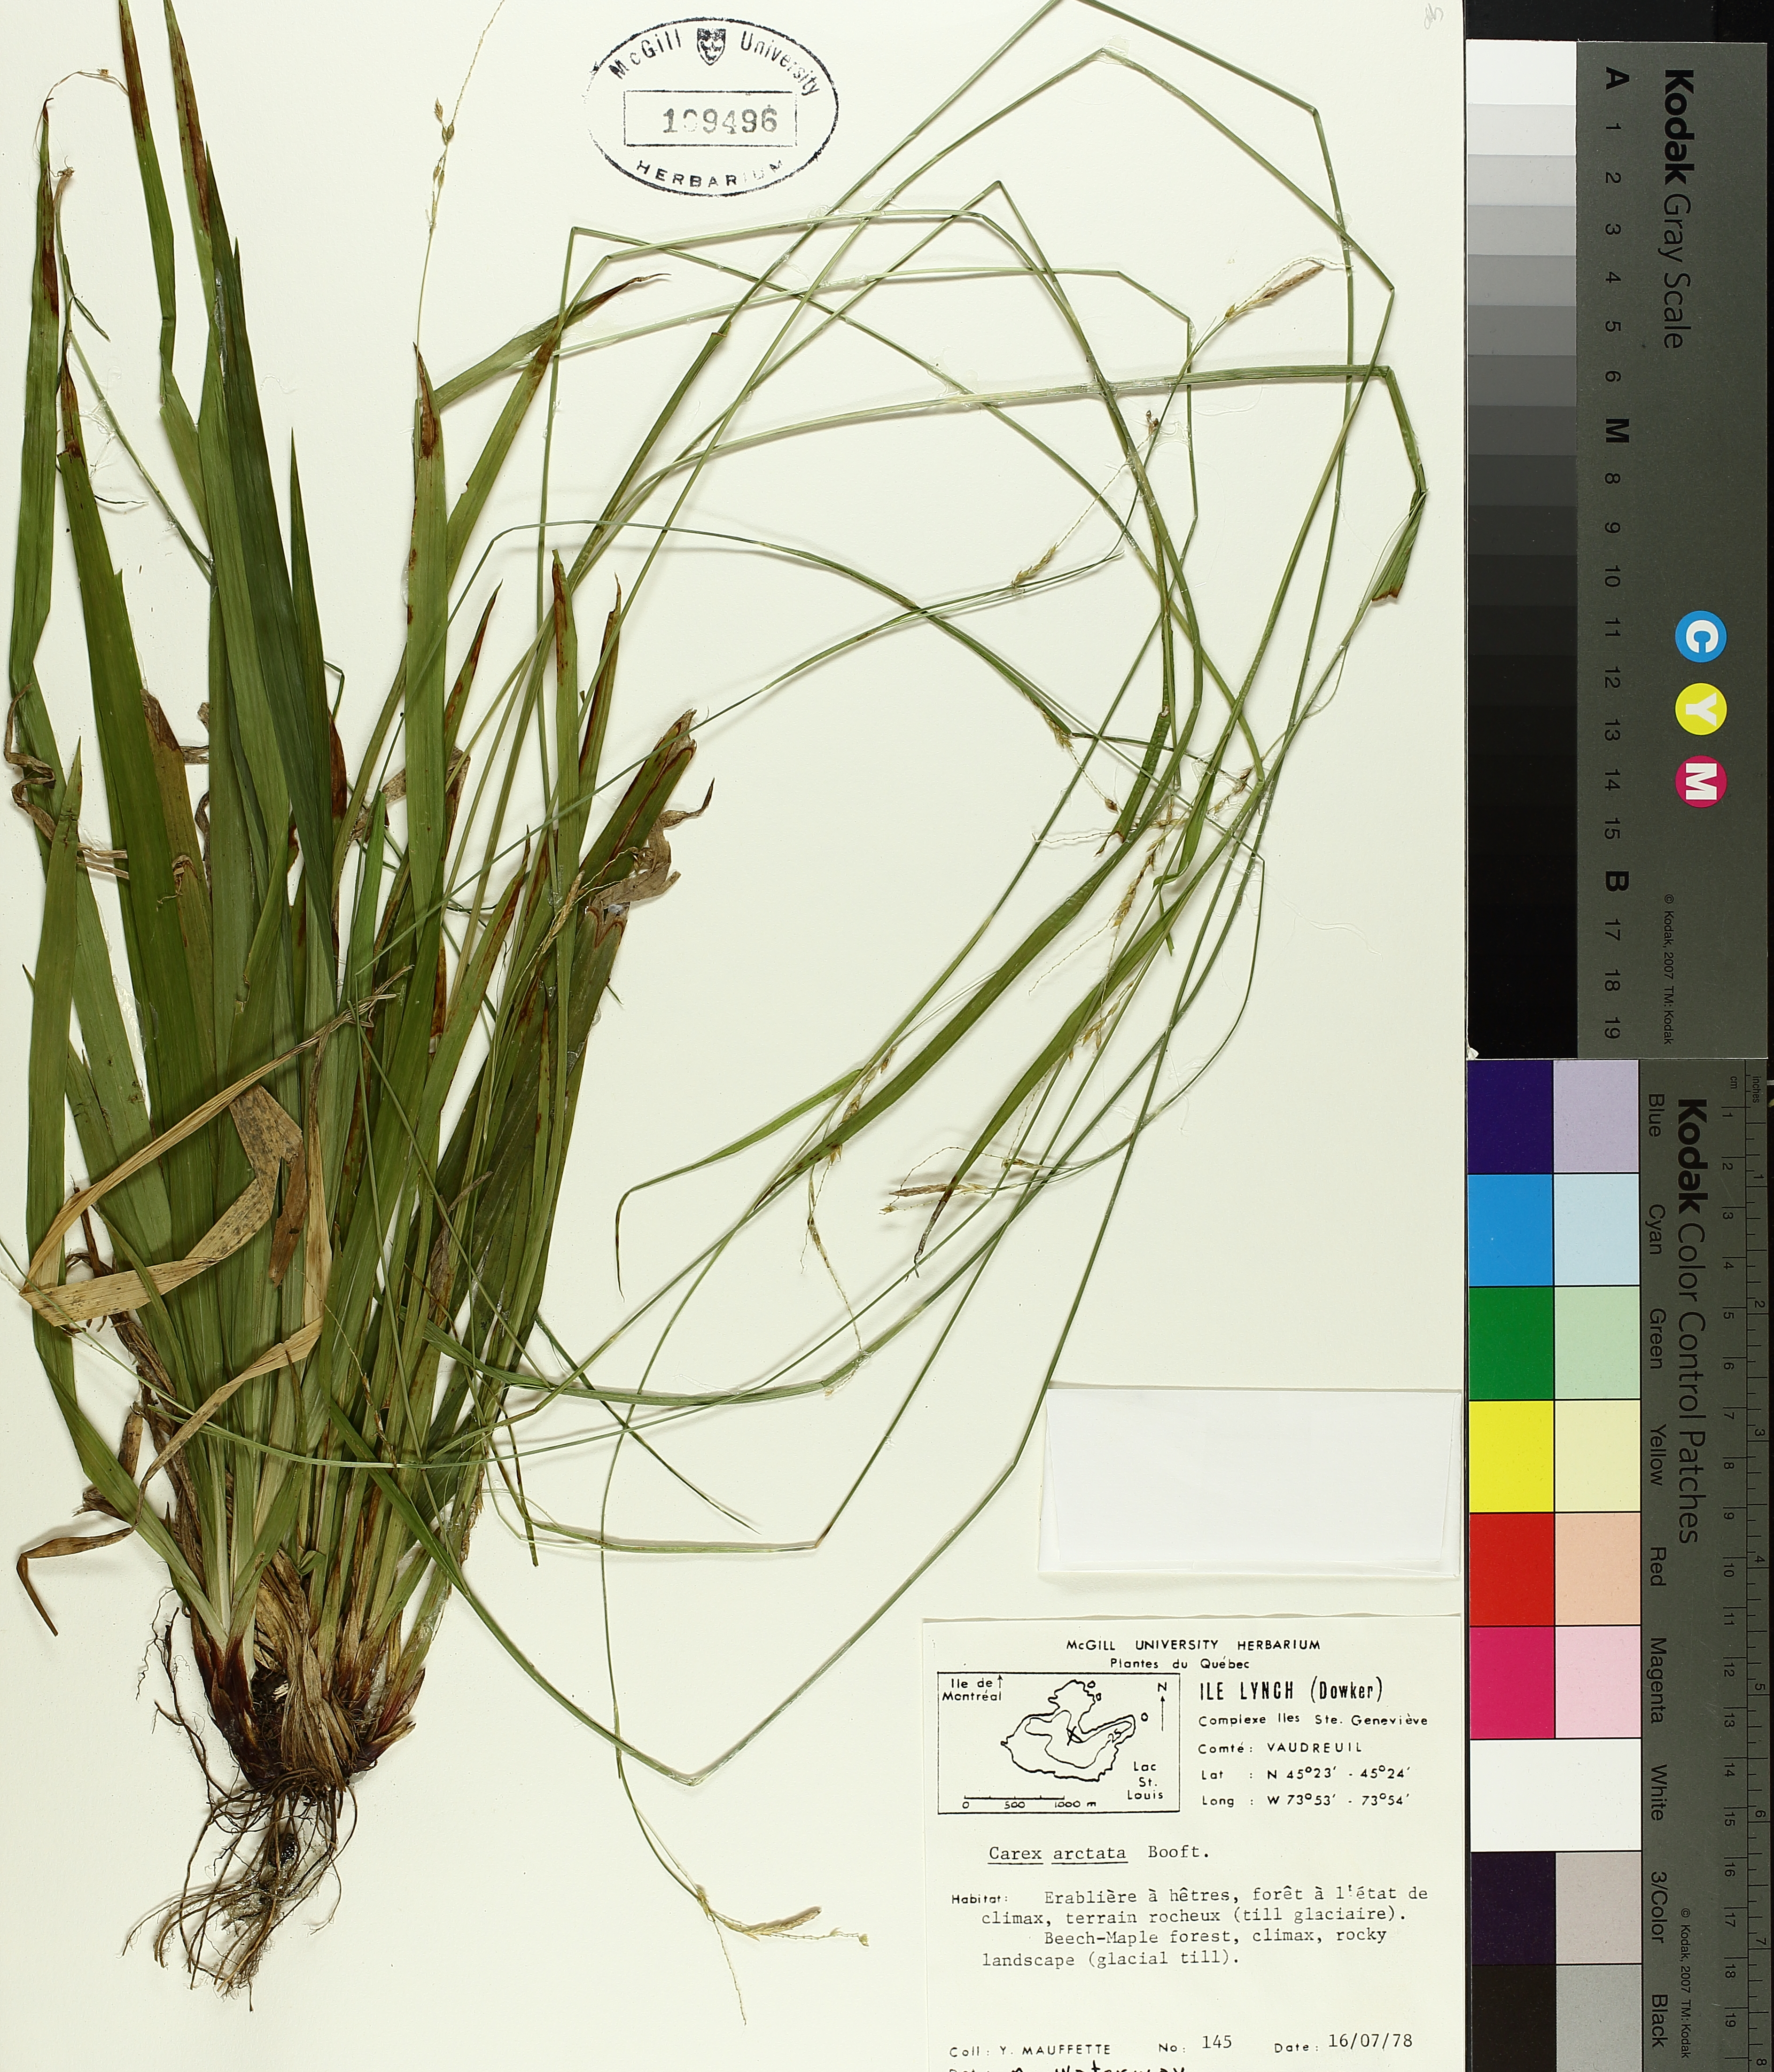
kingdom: Plantae
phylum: Tracheophyta
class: Liliopsida
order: Poales
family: Cyperaceae
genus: Carex
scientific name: Carex arctata
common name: Black sedge
